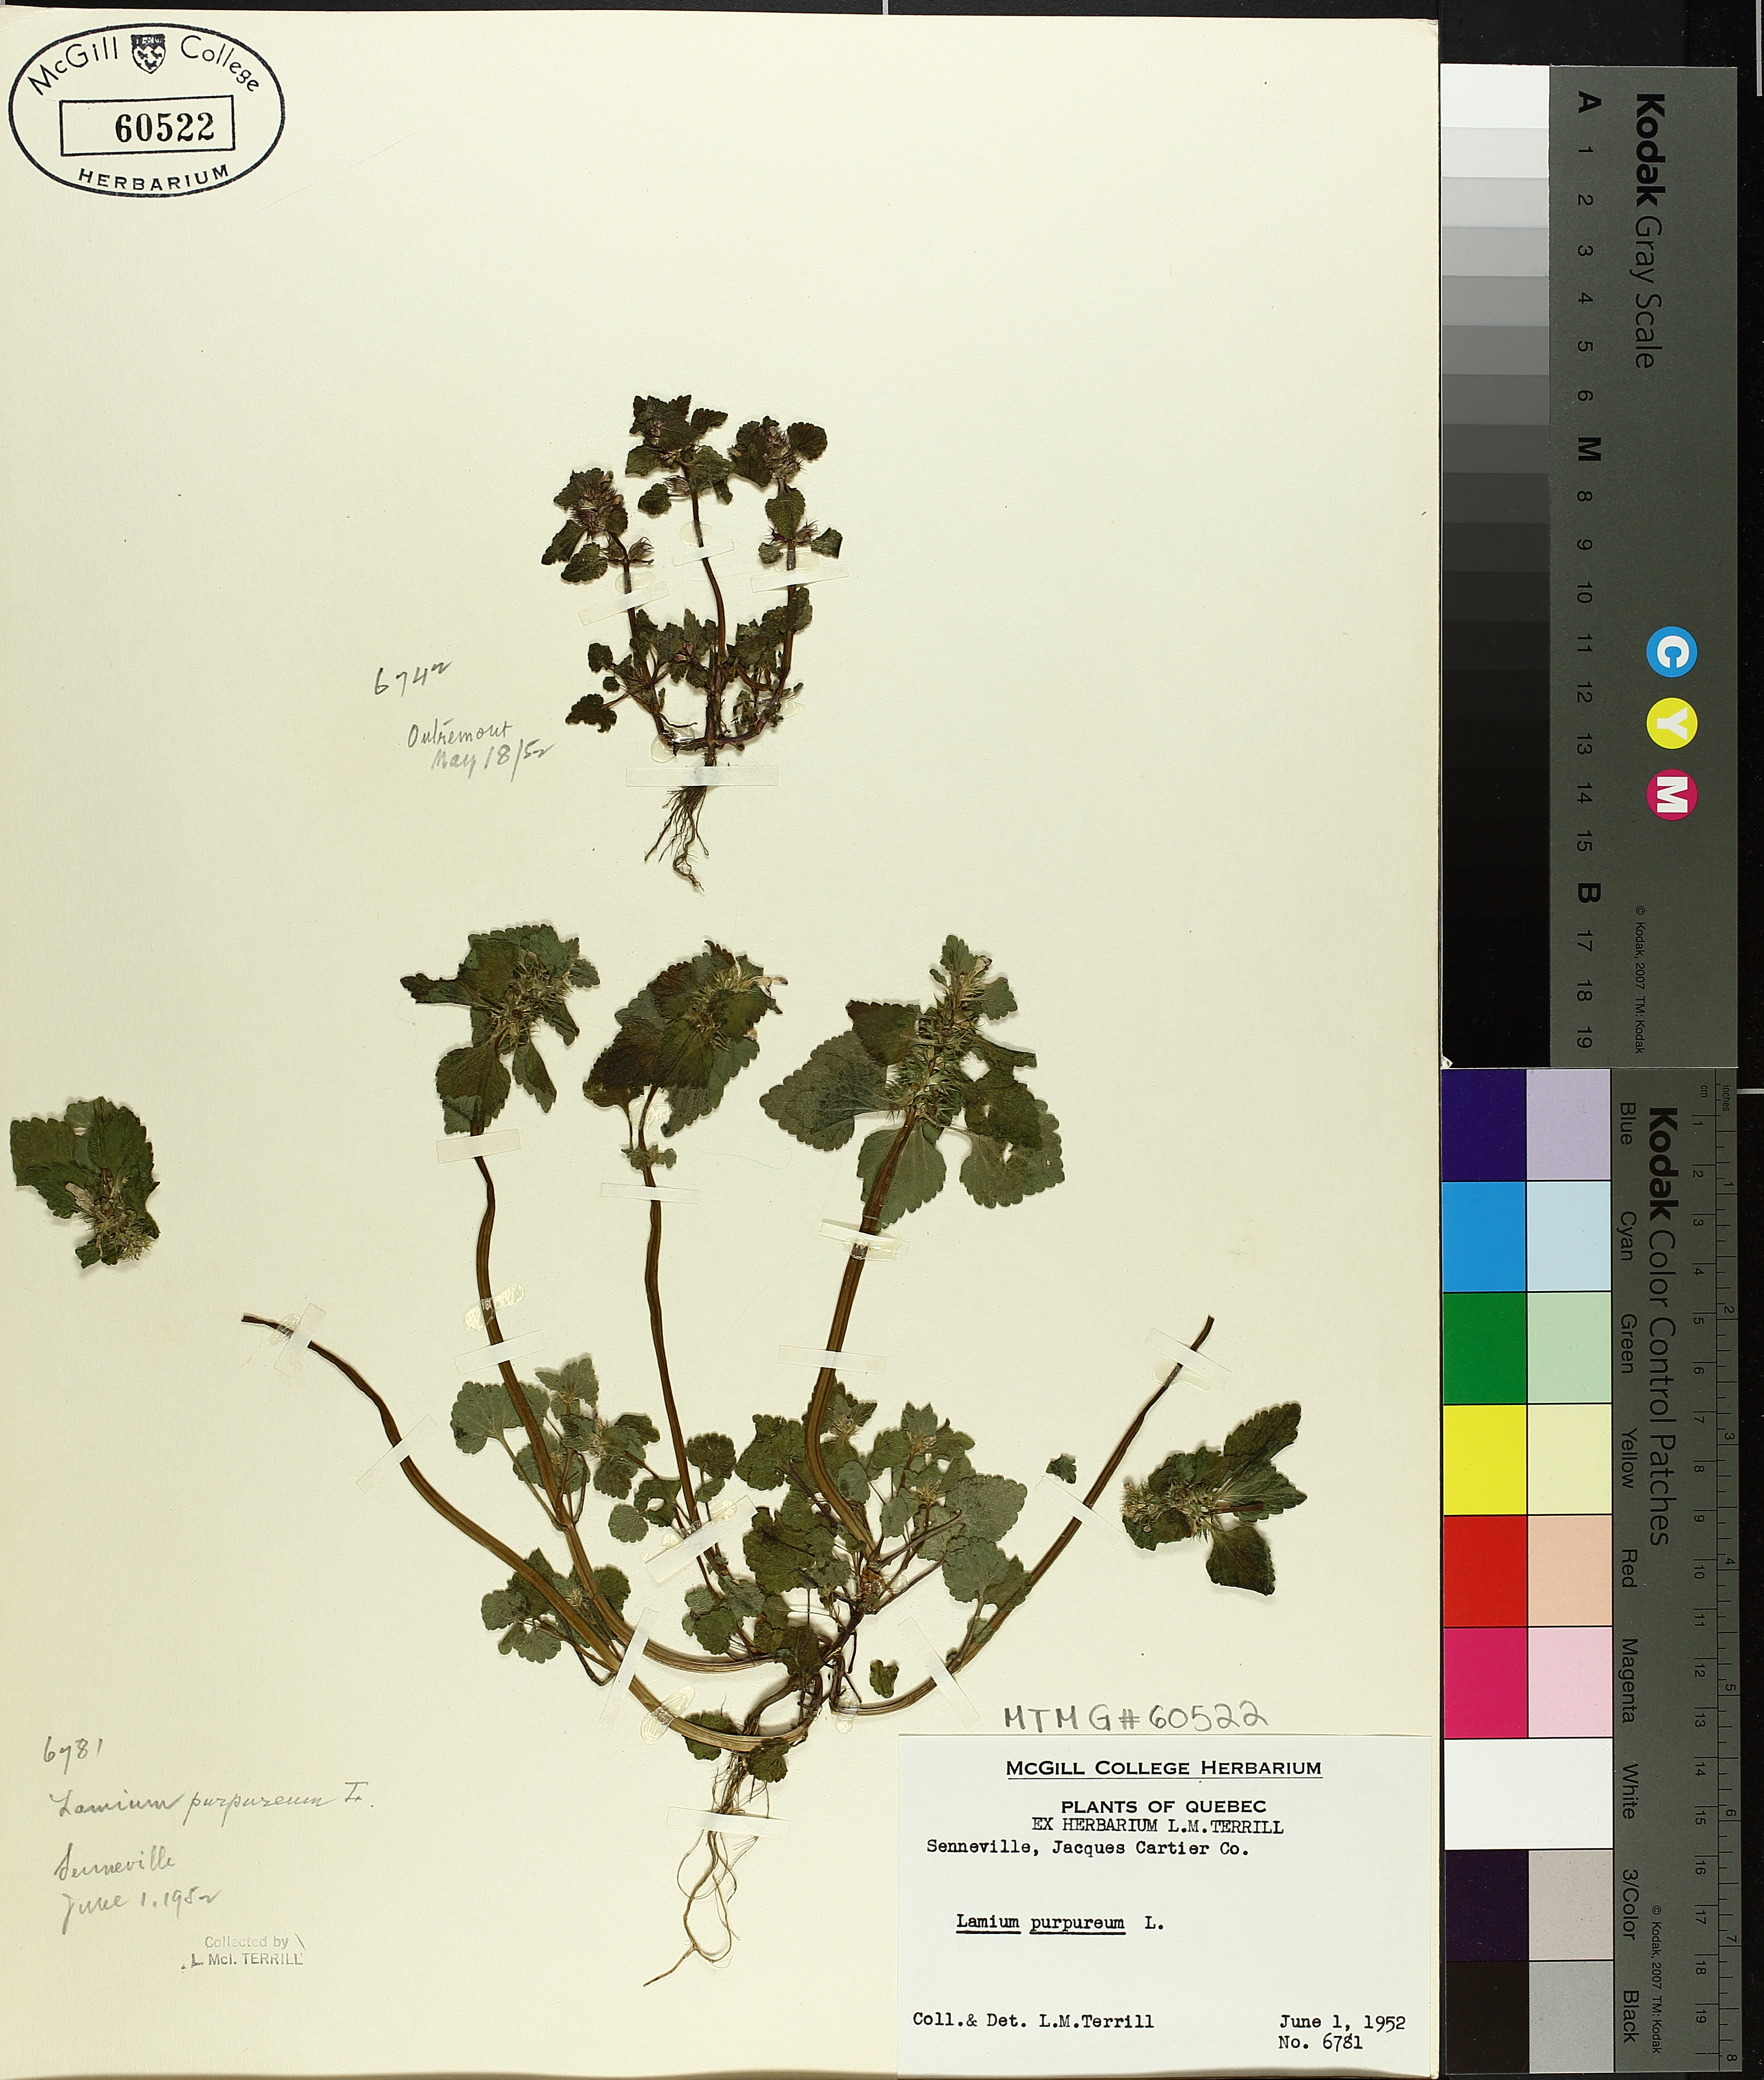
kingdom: Plantae
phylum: Tracheophyta
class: Magnoliopsida
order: Lamiales
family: Lamiaceae
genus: Lamium
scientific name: Lamium purpureum
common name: Red dead-nettle
